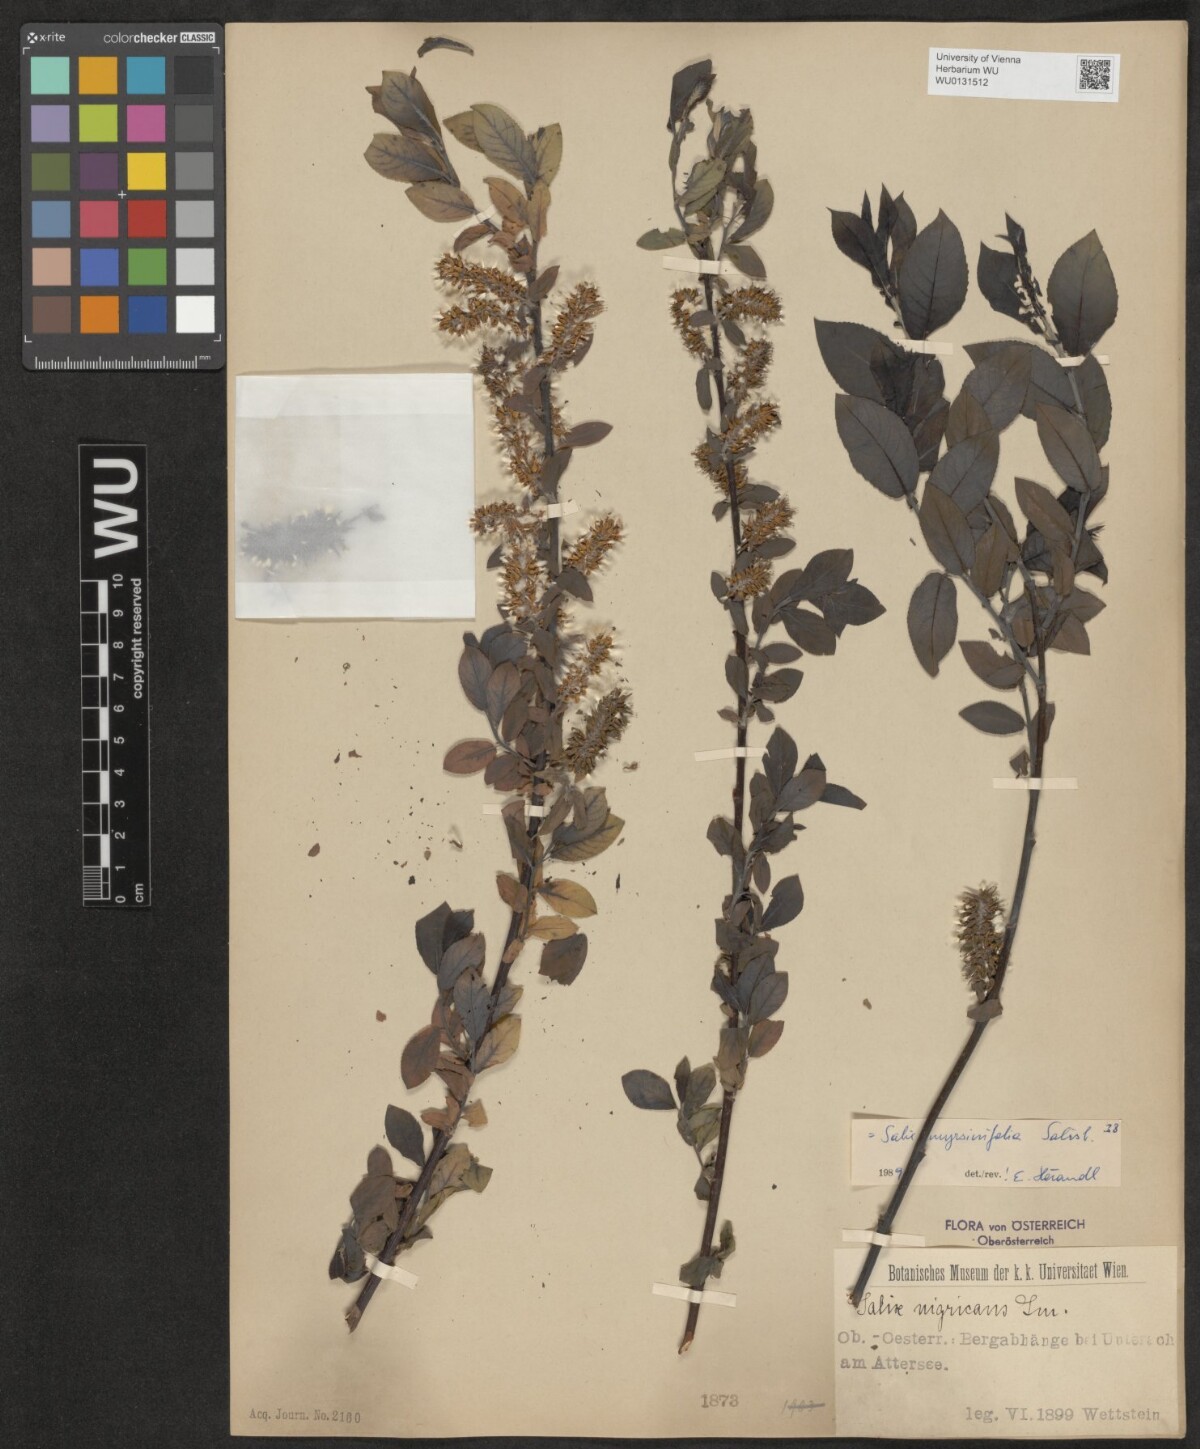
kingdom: Plantae
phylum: Tracheophyta
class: Magnoliopsida
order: Malpighiales
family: Salicaceae
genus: Salix
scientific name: Salix myrsinifolia
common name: Dark-leaved willow
